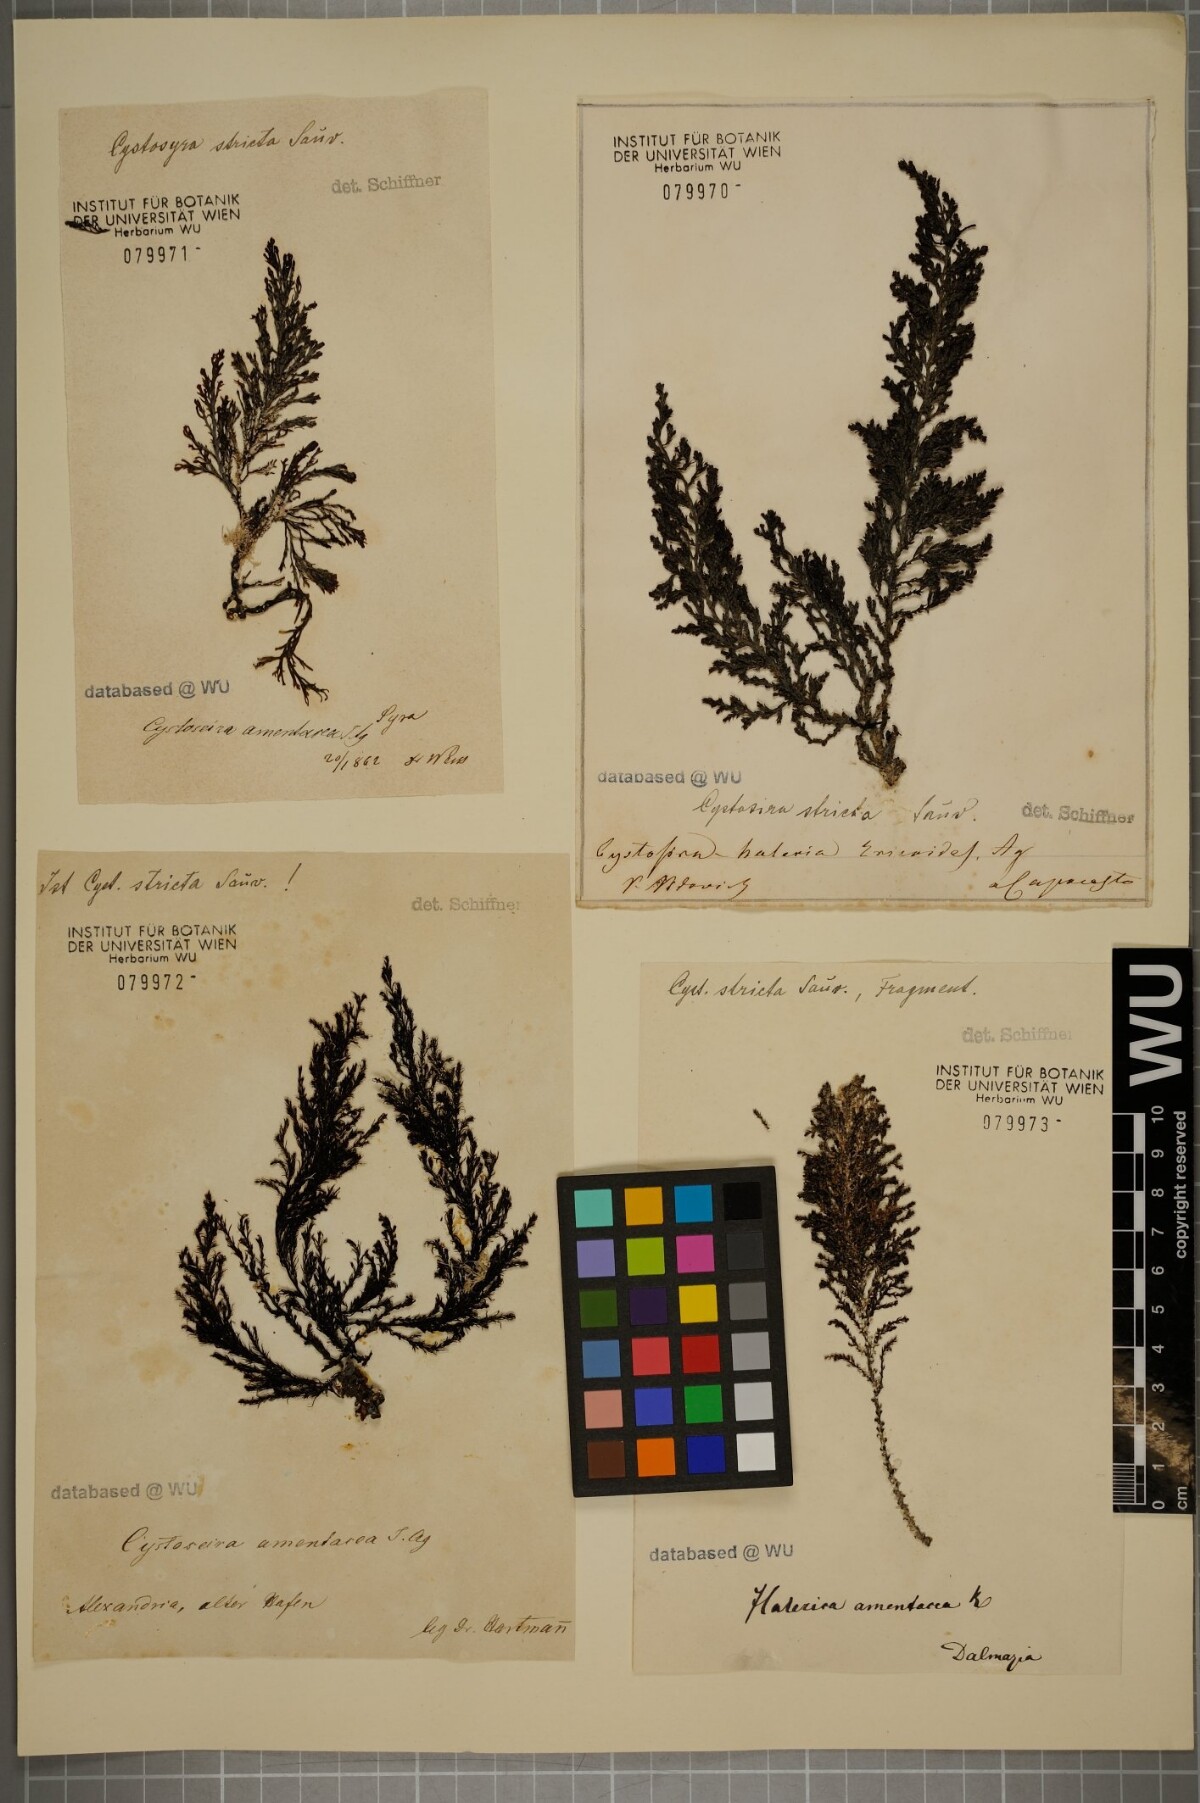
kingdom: Chromista
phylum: Ochrophyta
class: Phaeophyceae
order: Fucales
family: Sargassaceae
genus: Cystoseira
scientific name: Cystoseira Ericaria amentacea
